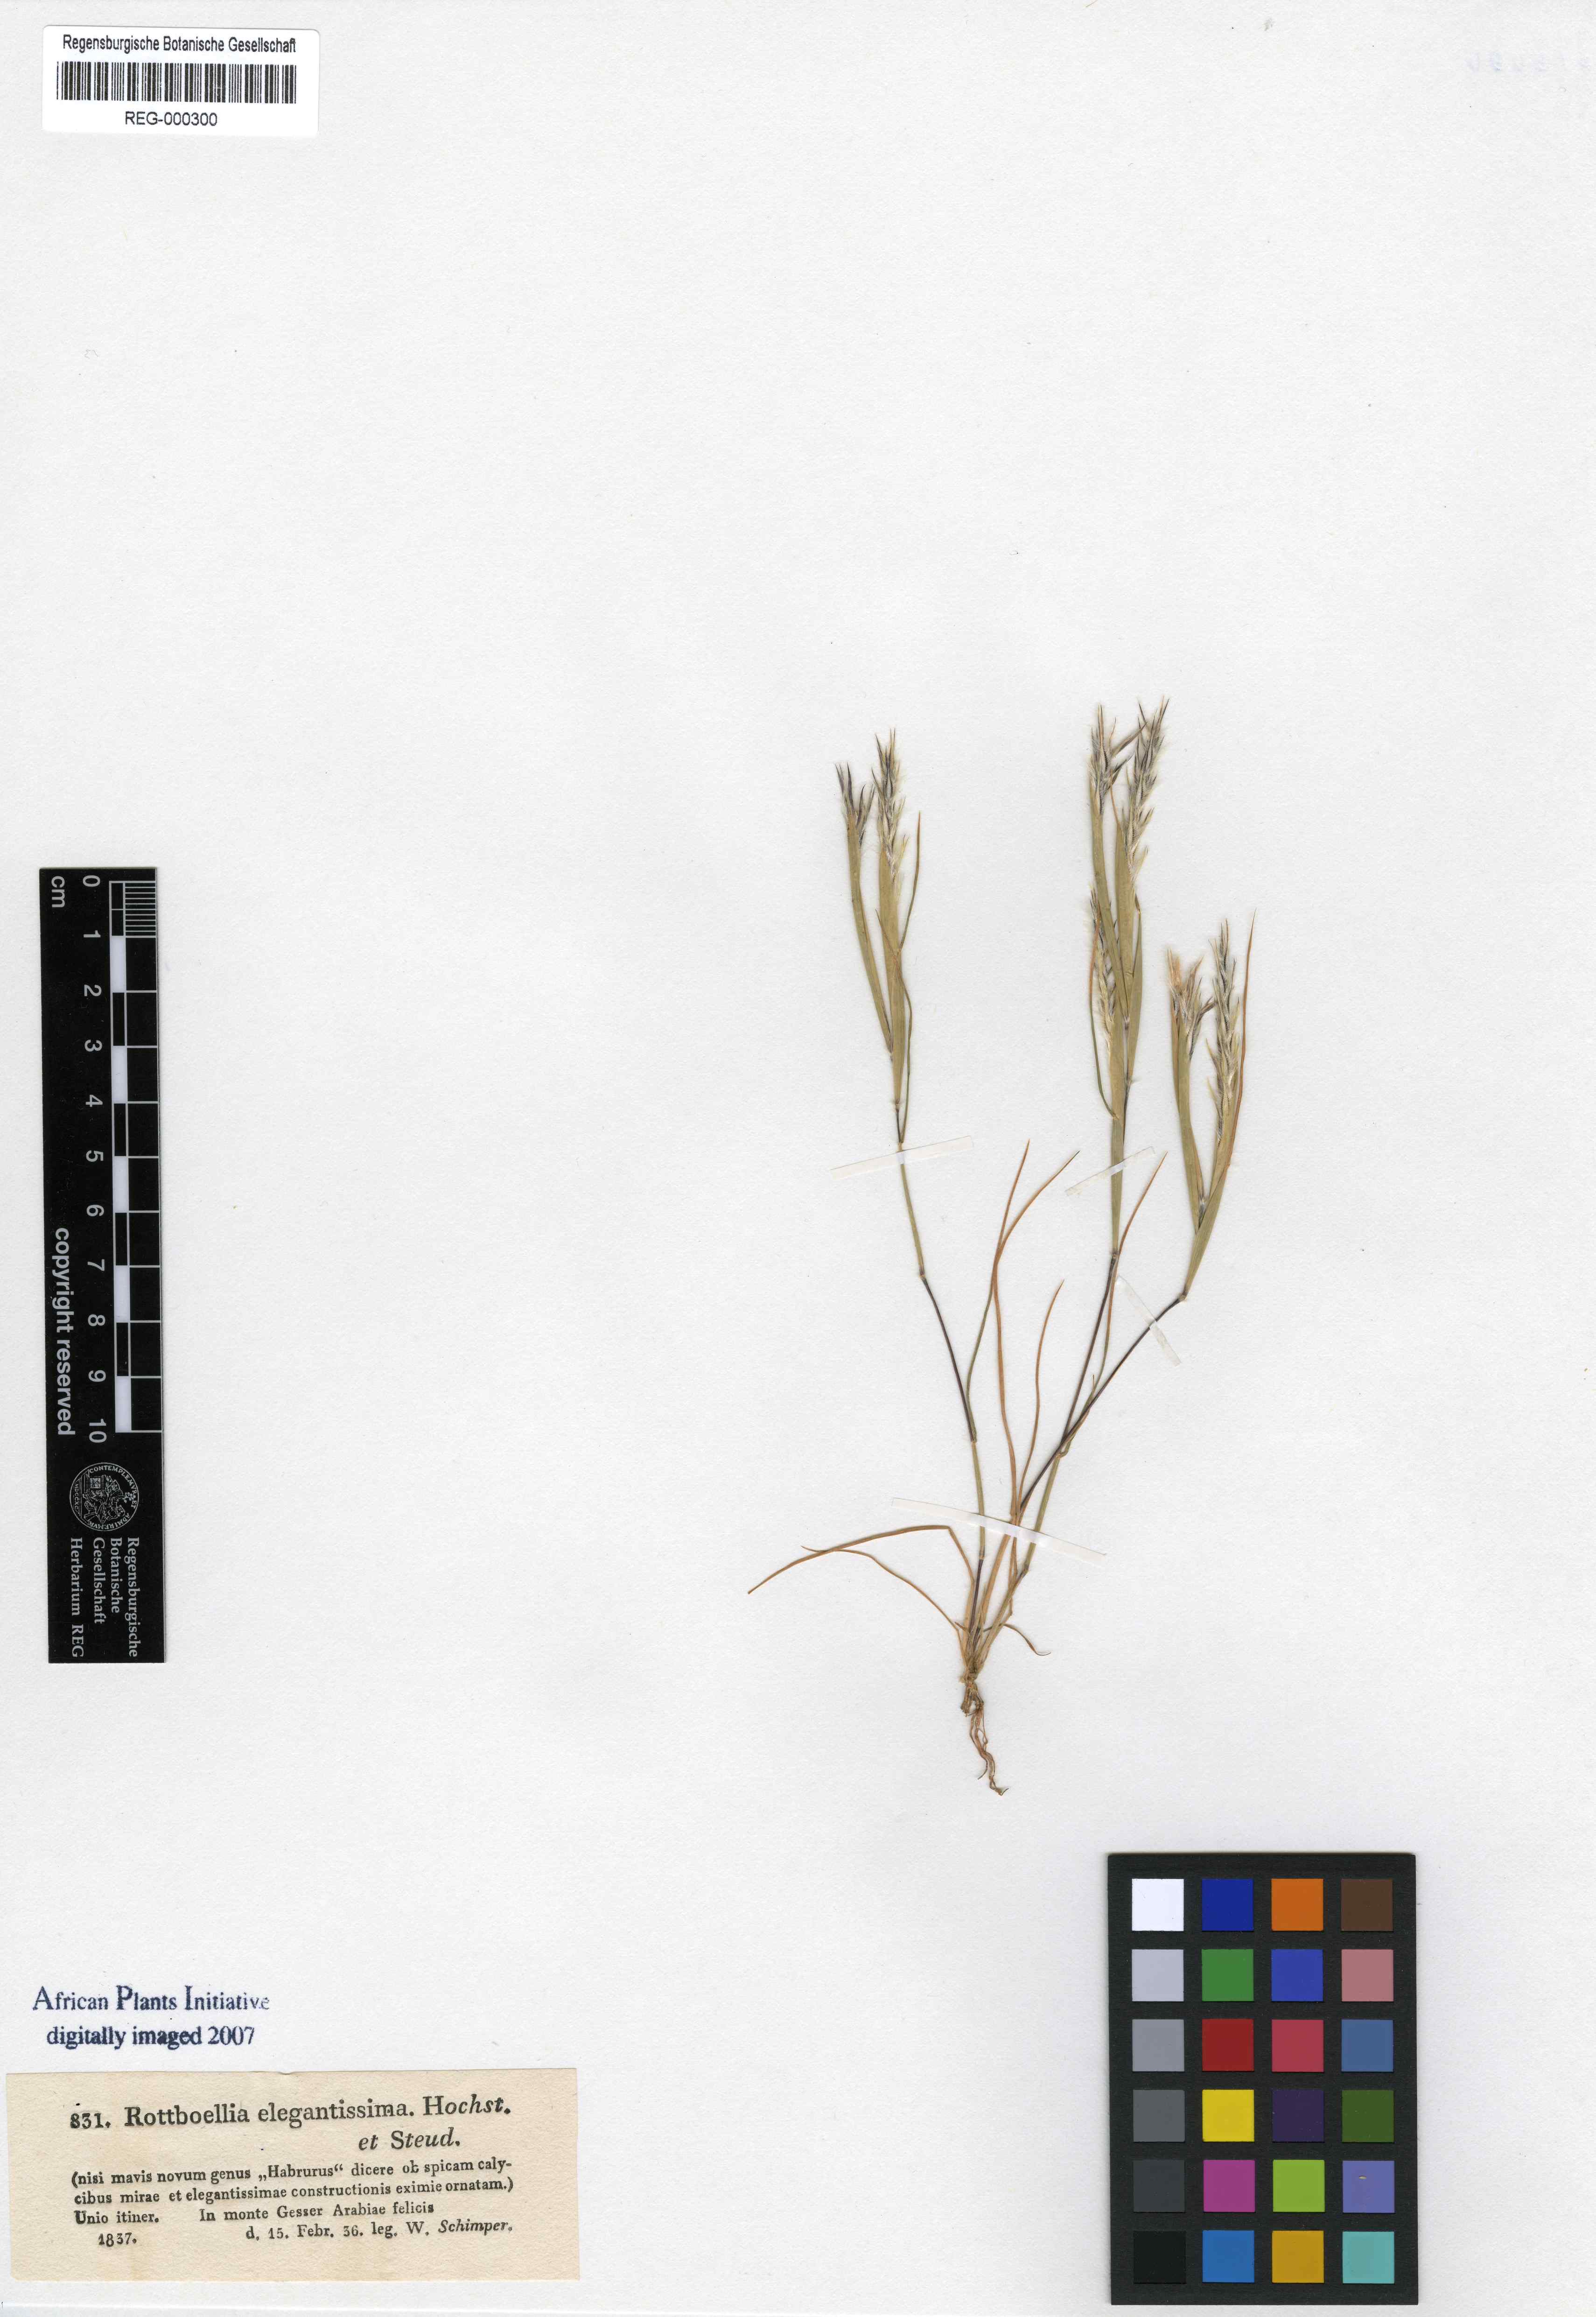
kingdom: Plantae
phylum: Tracheophyta
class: Liliopsida
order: Poales
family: Poaceae
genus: Elionurus
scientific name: Elionurus royleanus
